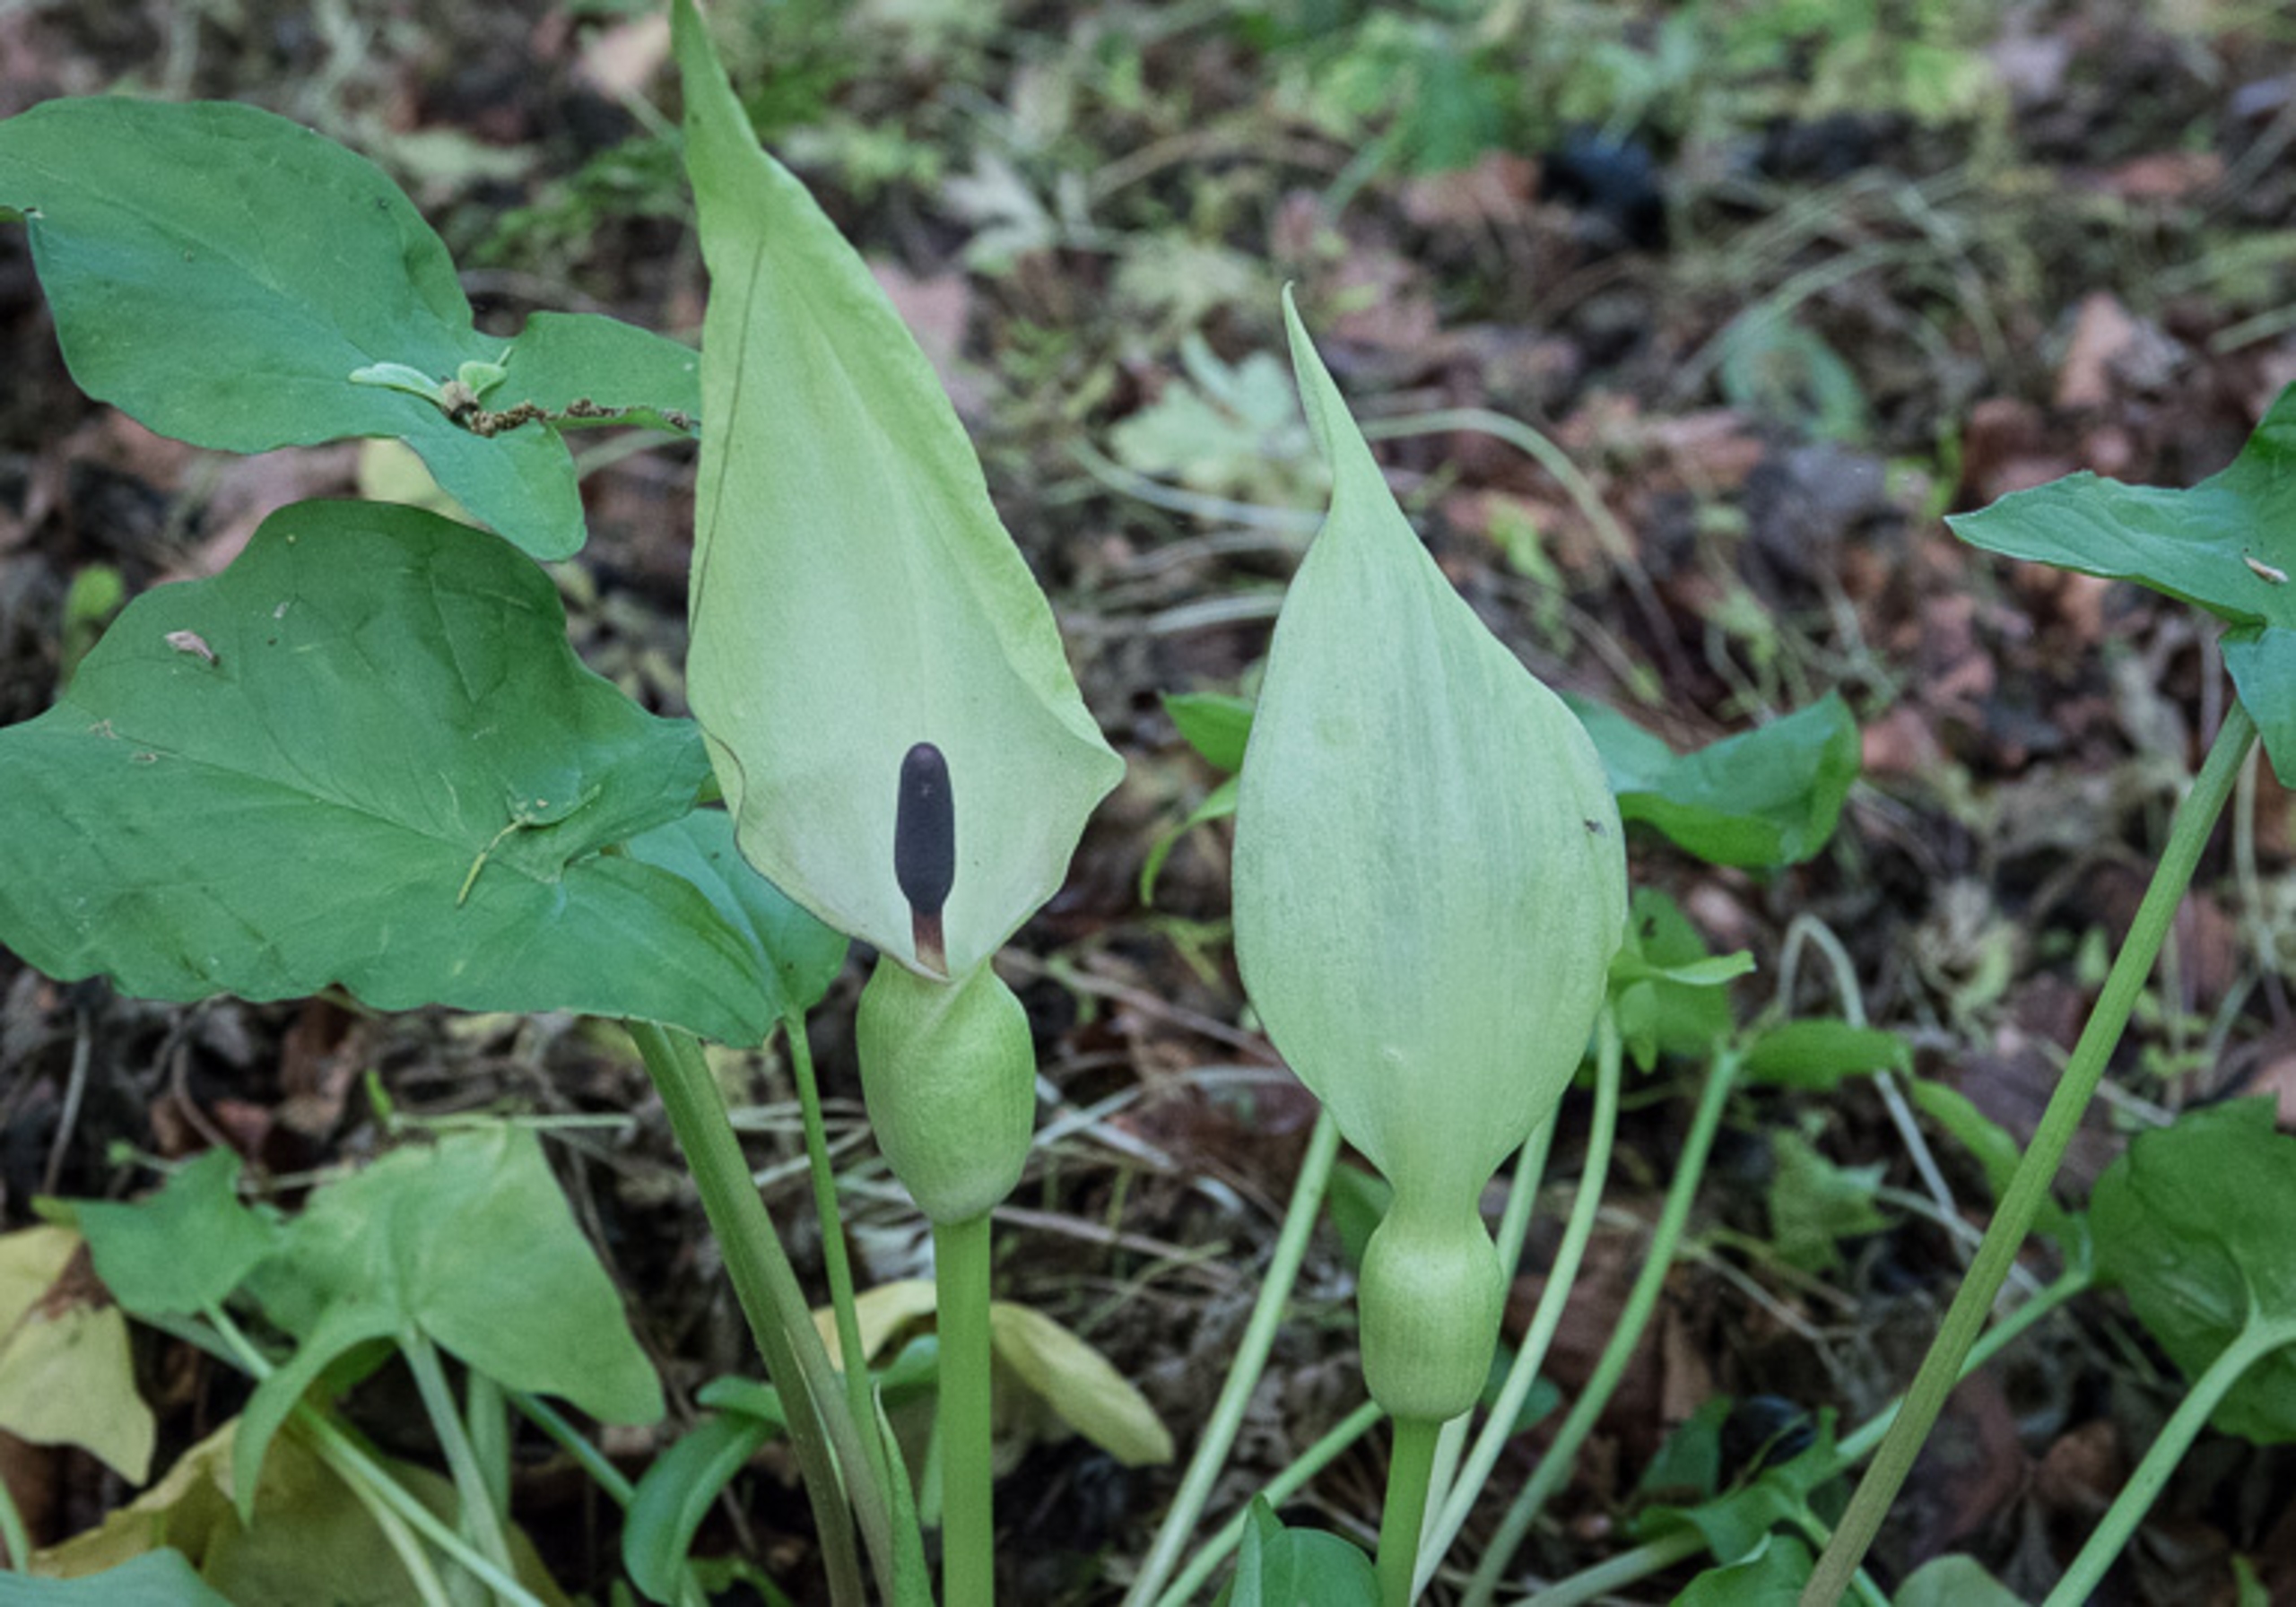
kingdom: Plantae
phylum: Tracheophyta
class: Liliopsida
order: Alismatales
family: Araceae
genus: Arum
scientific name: Arum maculatum
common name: Plettet arum
